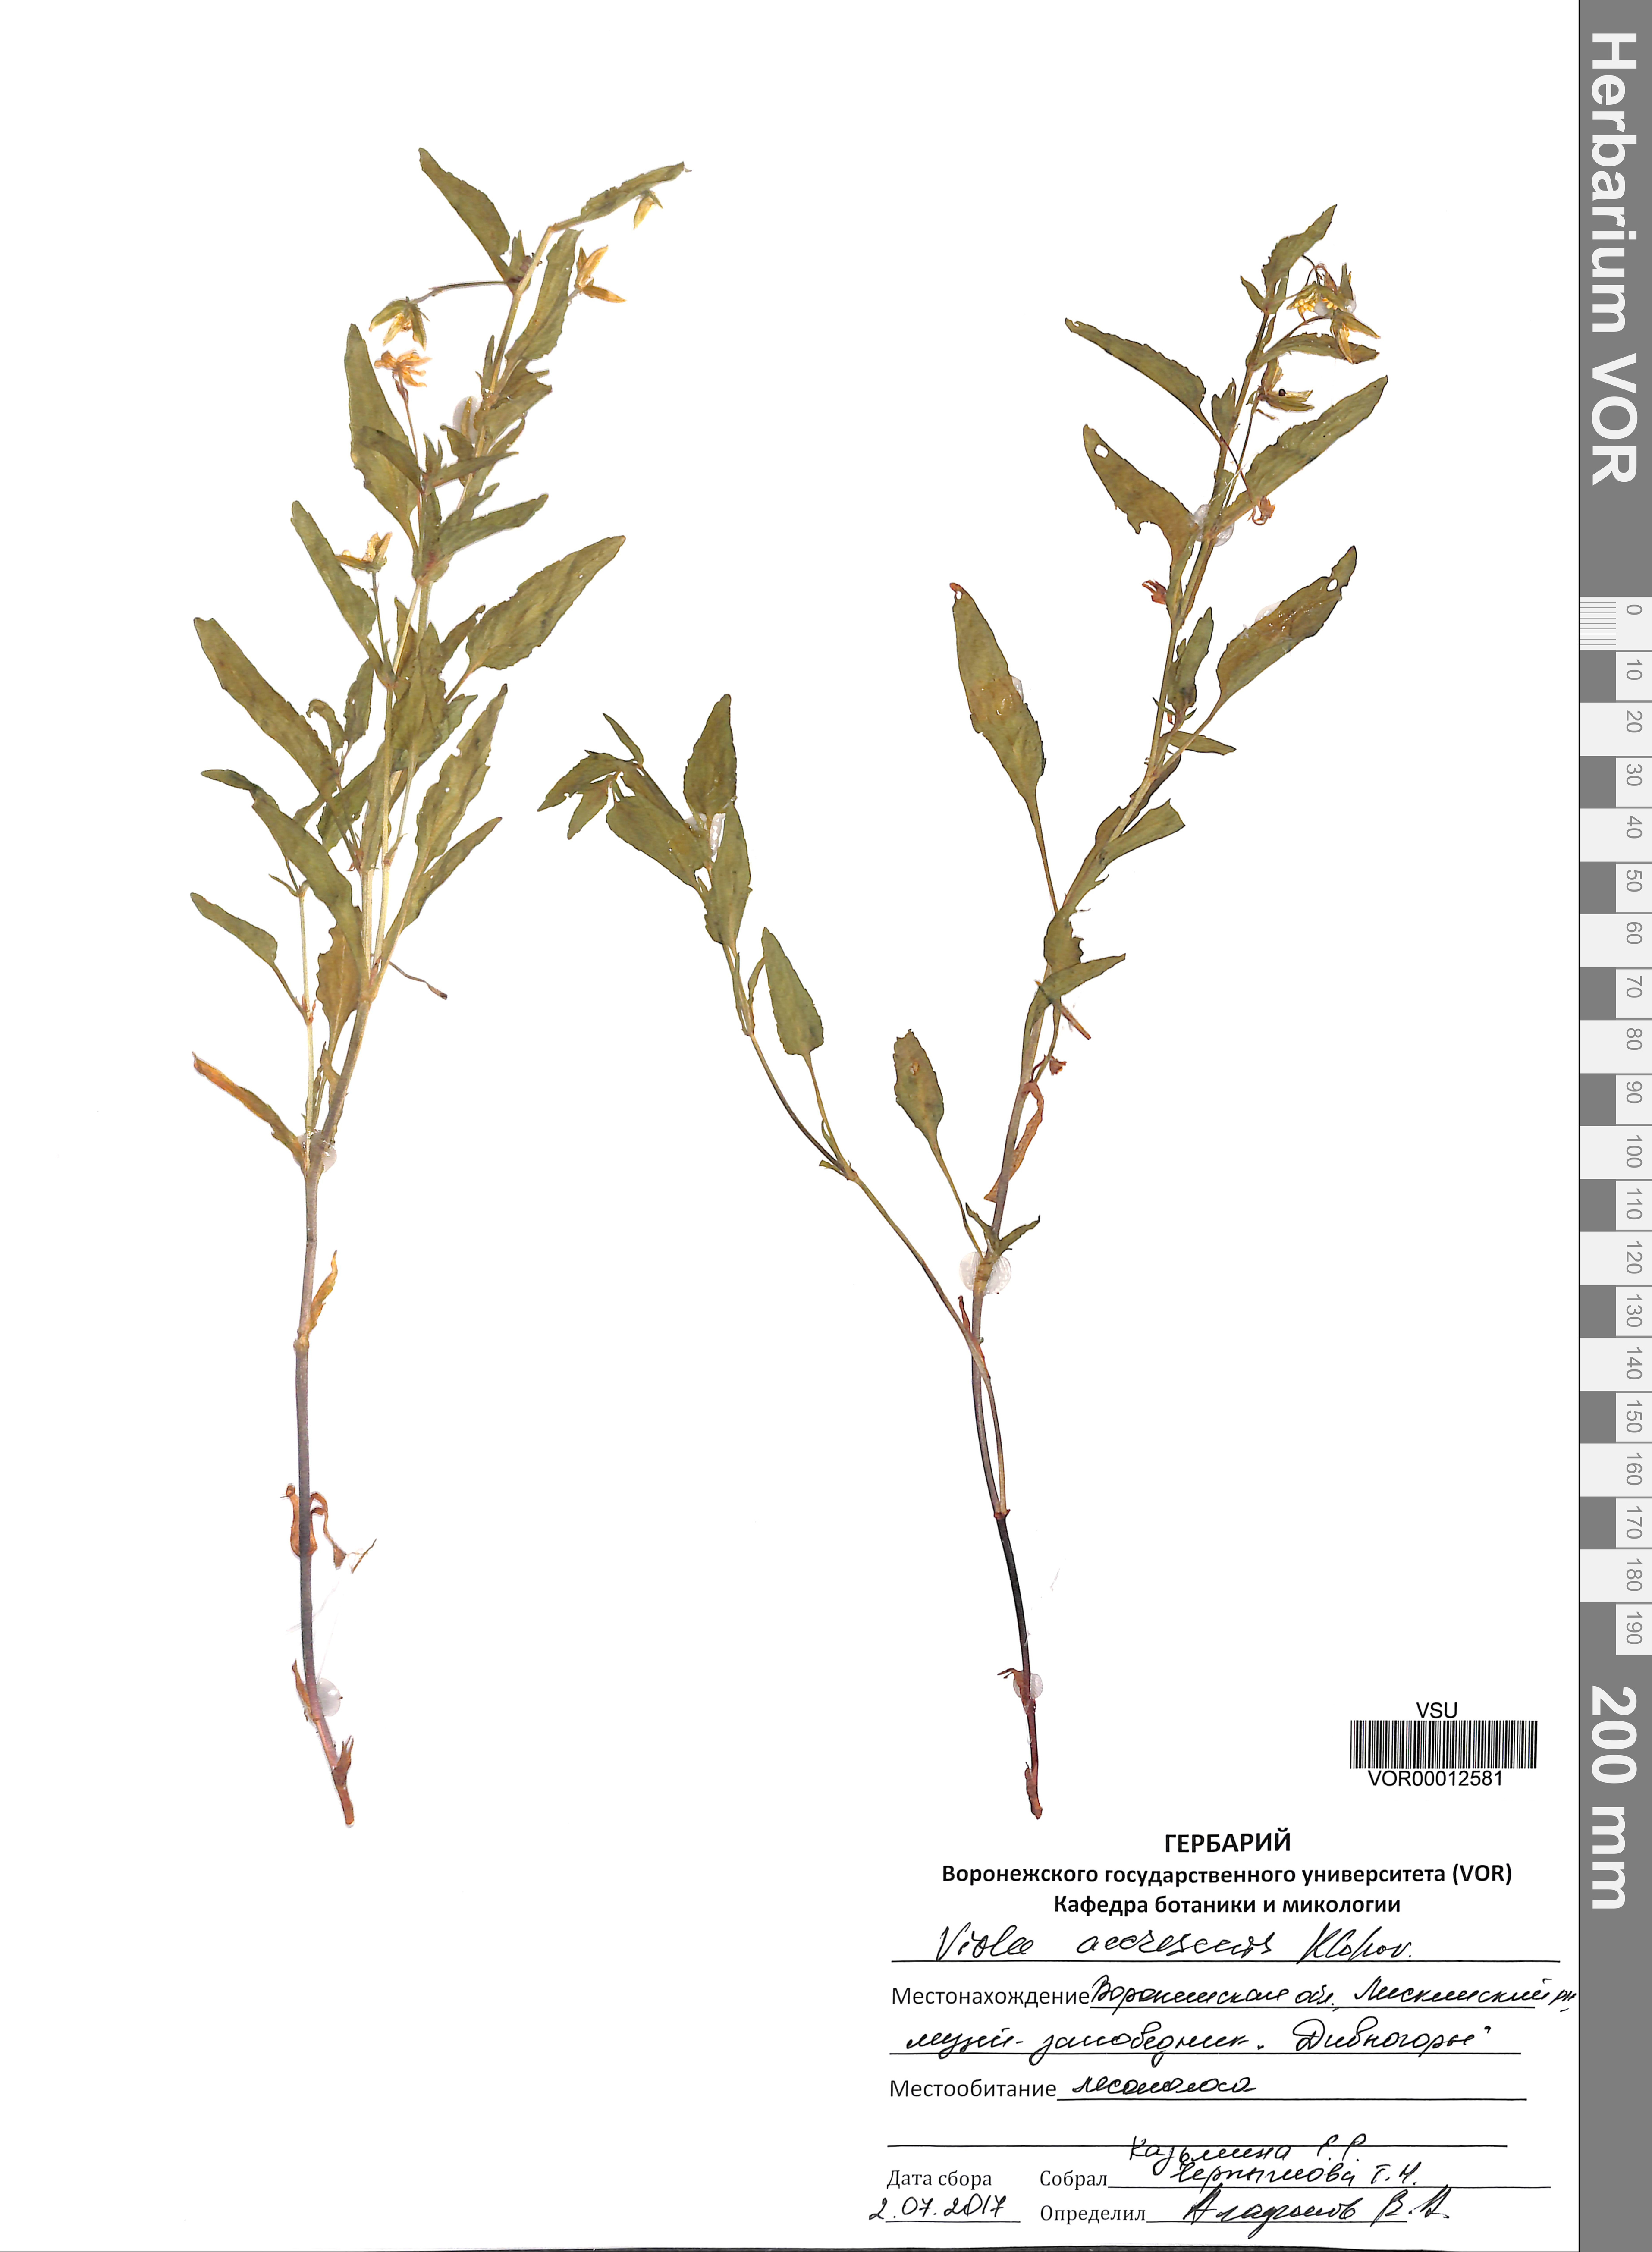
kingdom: Plantae
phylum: Tracheophyta
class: Magnoliopsida
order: Malpighiales
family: Violaceae
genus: Viola
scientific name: Viola pumila
